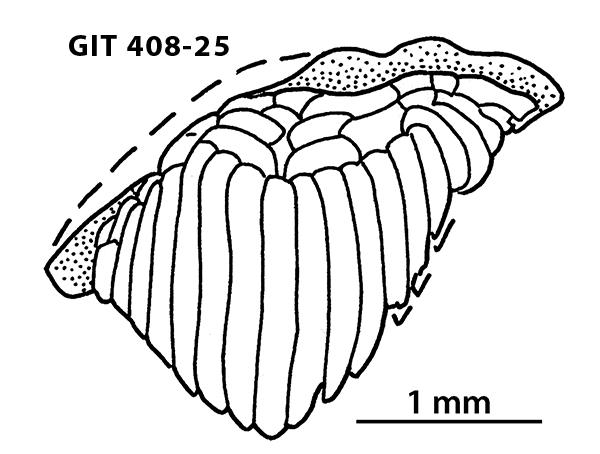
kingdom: Animalia
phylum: Chordata
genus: Archegonaspis
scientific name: Archegonaspis
